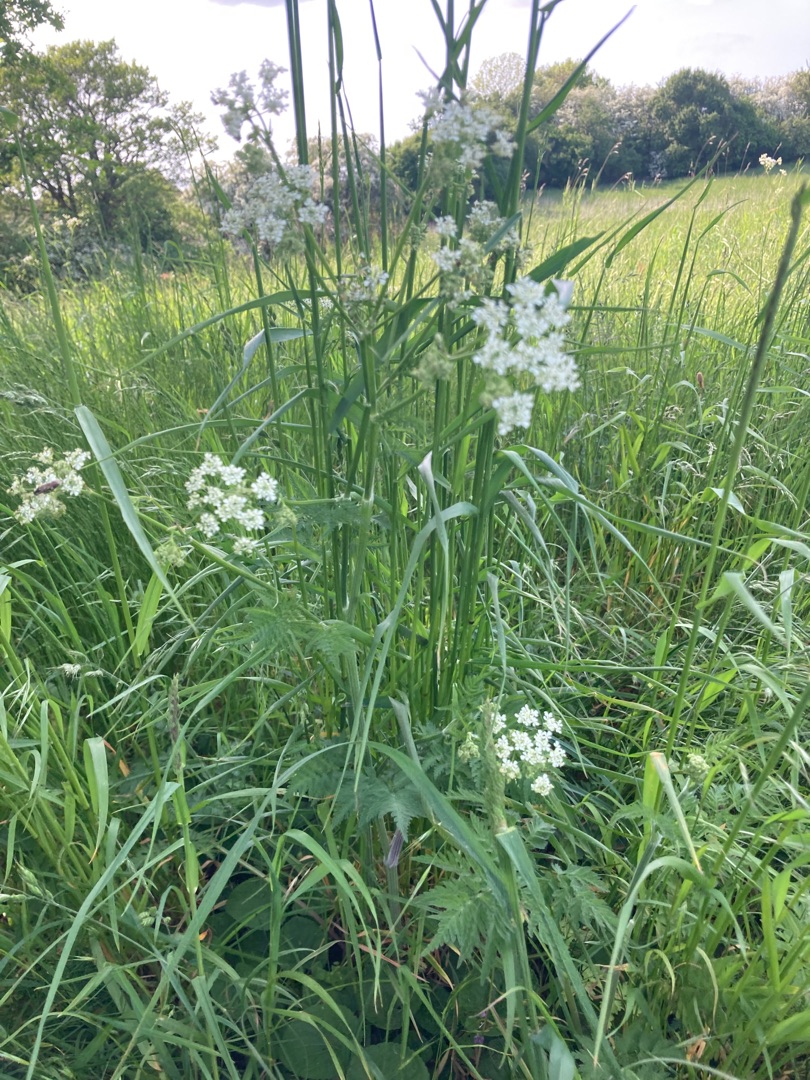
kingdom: Plantae
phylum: Tracheophyta
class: Magnoliopsida
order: Apiales
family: Apiaceae
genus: Anthriscus
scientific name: Anthriscus sylvestris
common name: Vild kørvel
